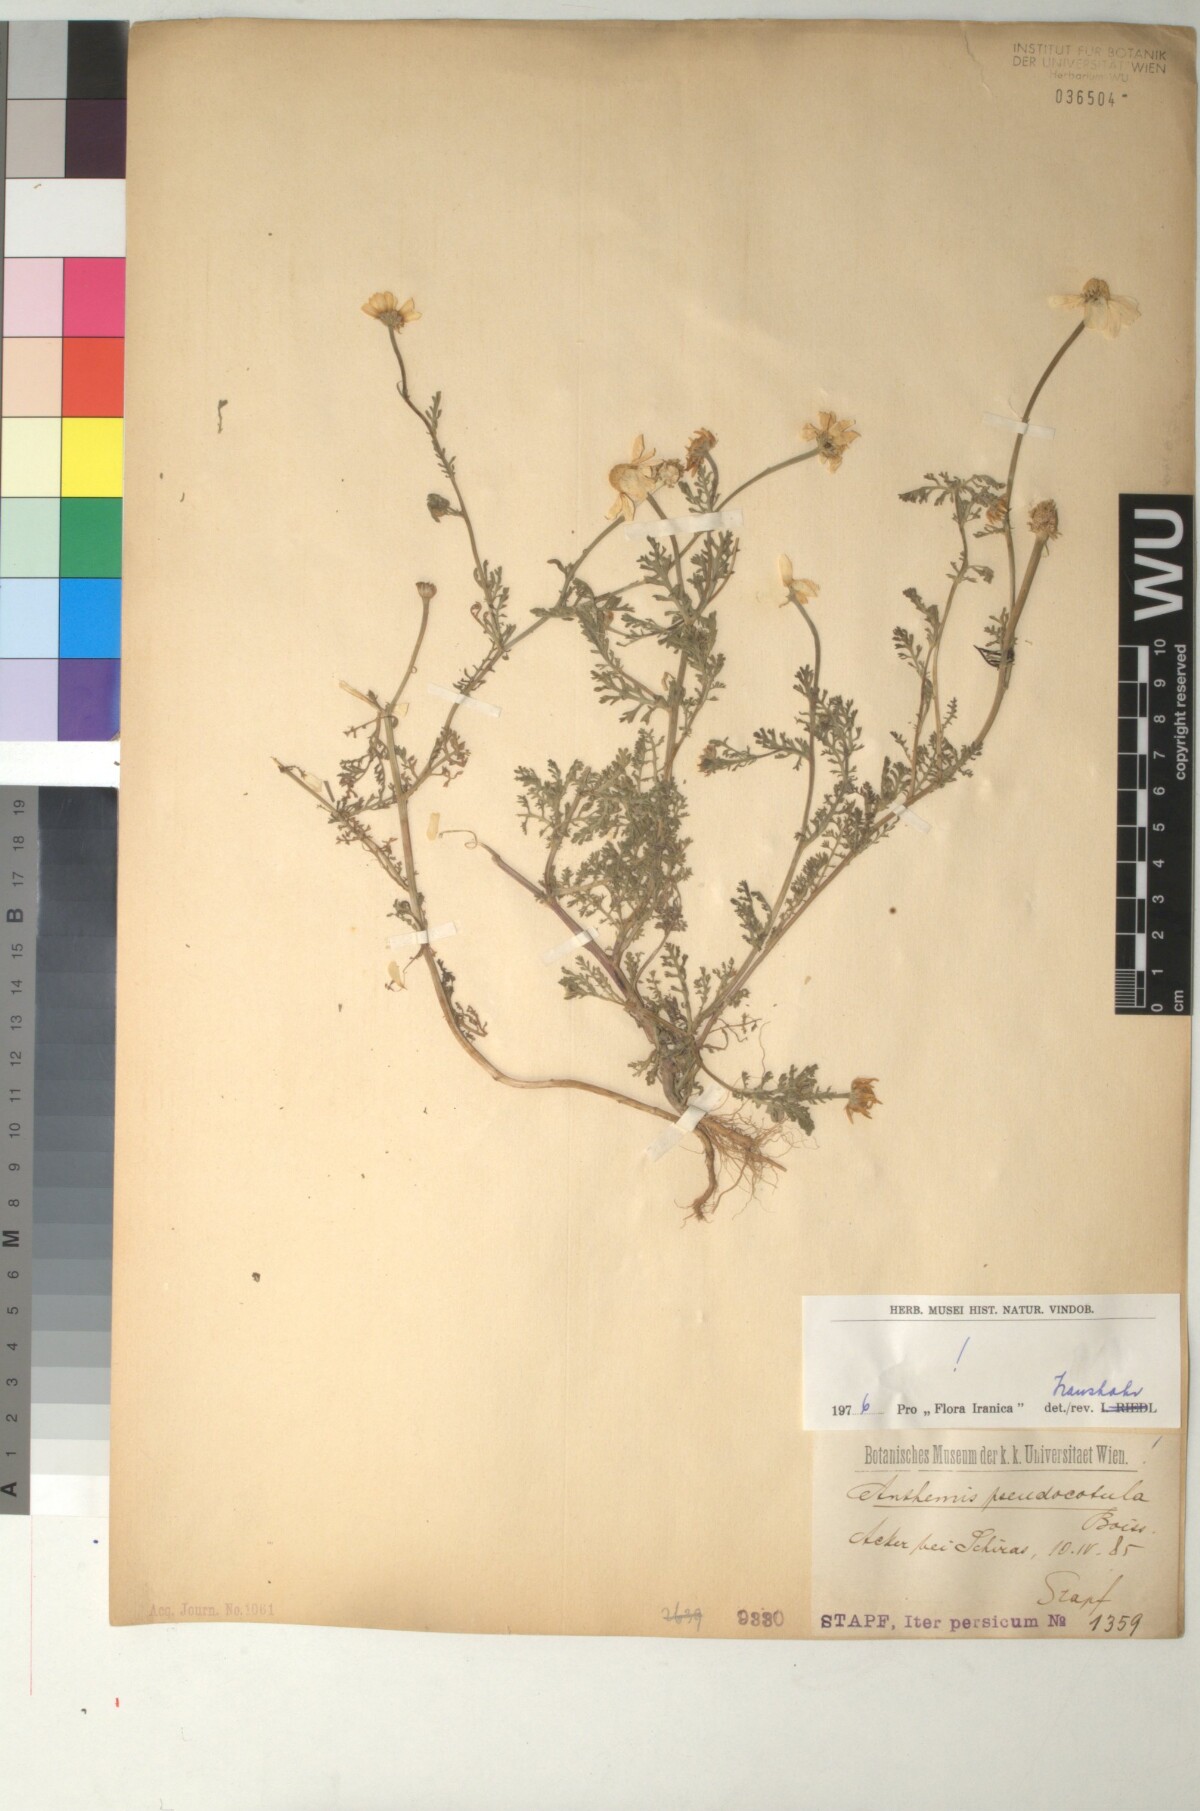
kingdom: Plantae
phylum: Tracheophyta
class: Magnoliopsida
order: Asterales
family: Asteraceae
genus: Anthemis
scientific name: Anthemis pseudocotula
